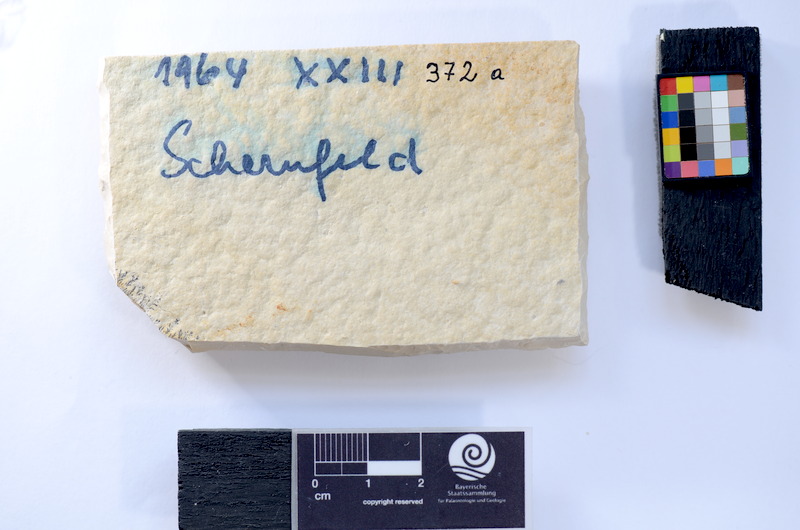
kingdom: Animalia
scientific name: Animalia
